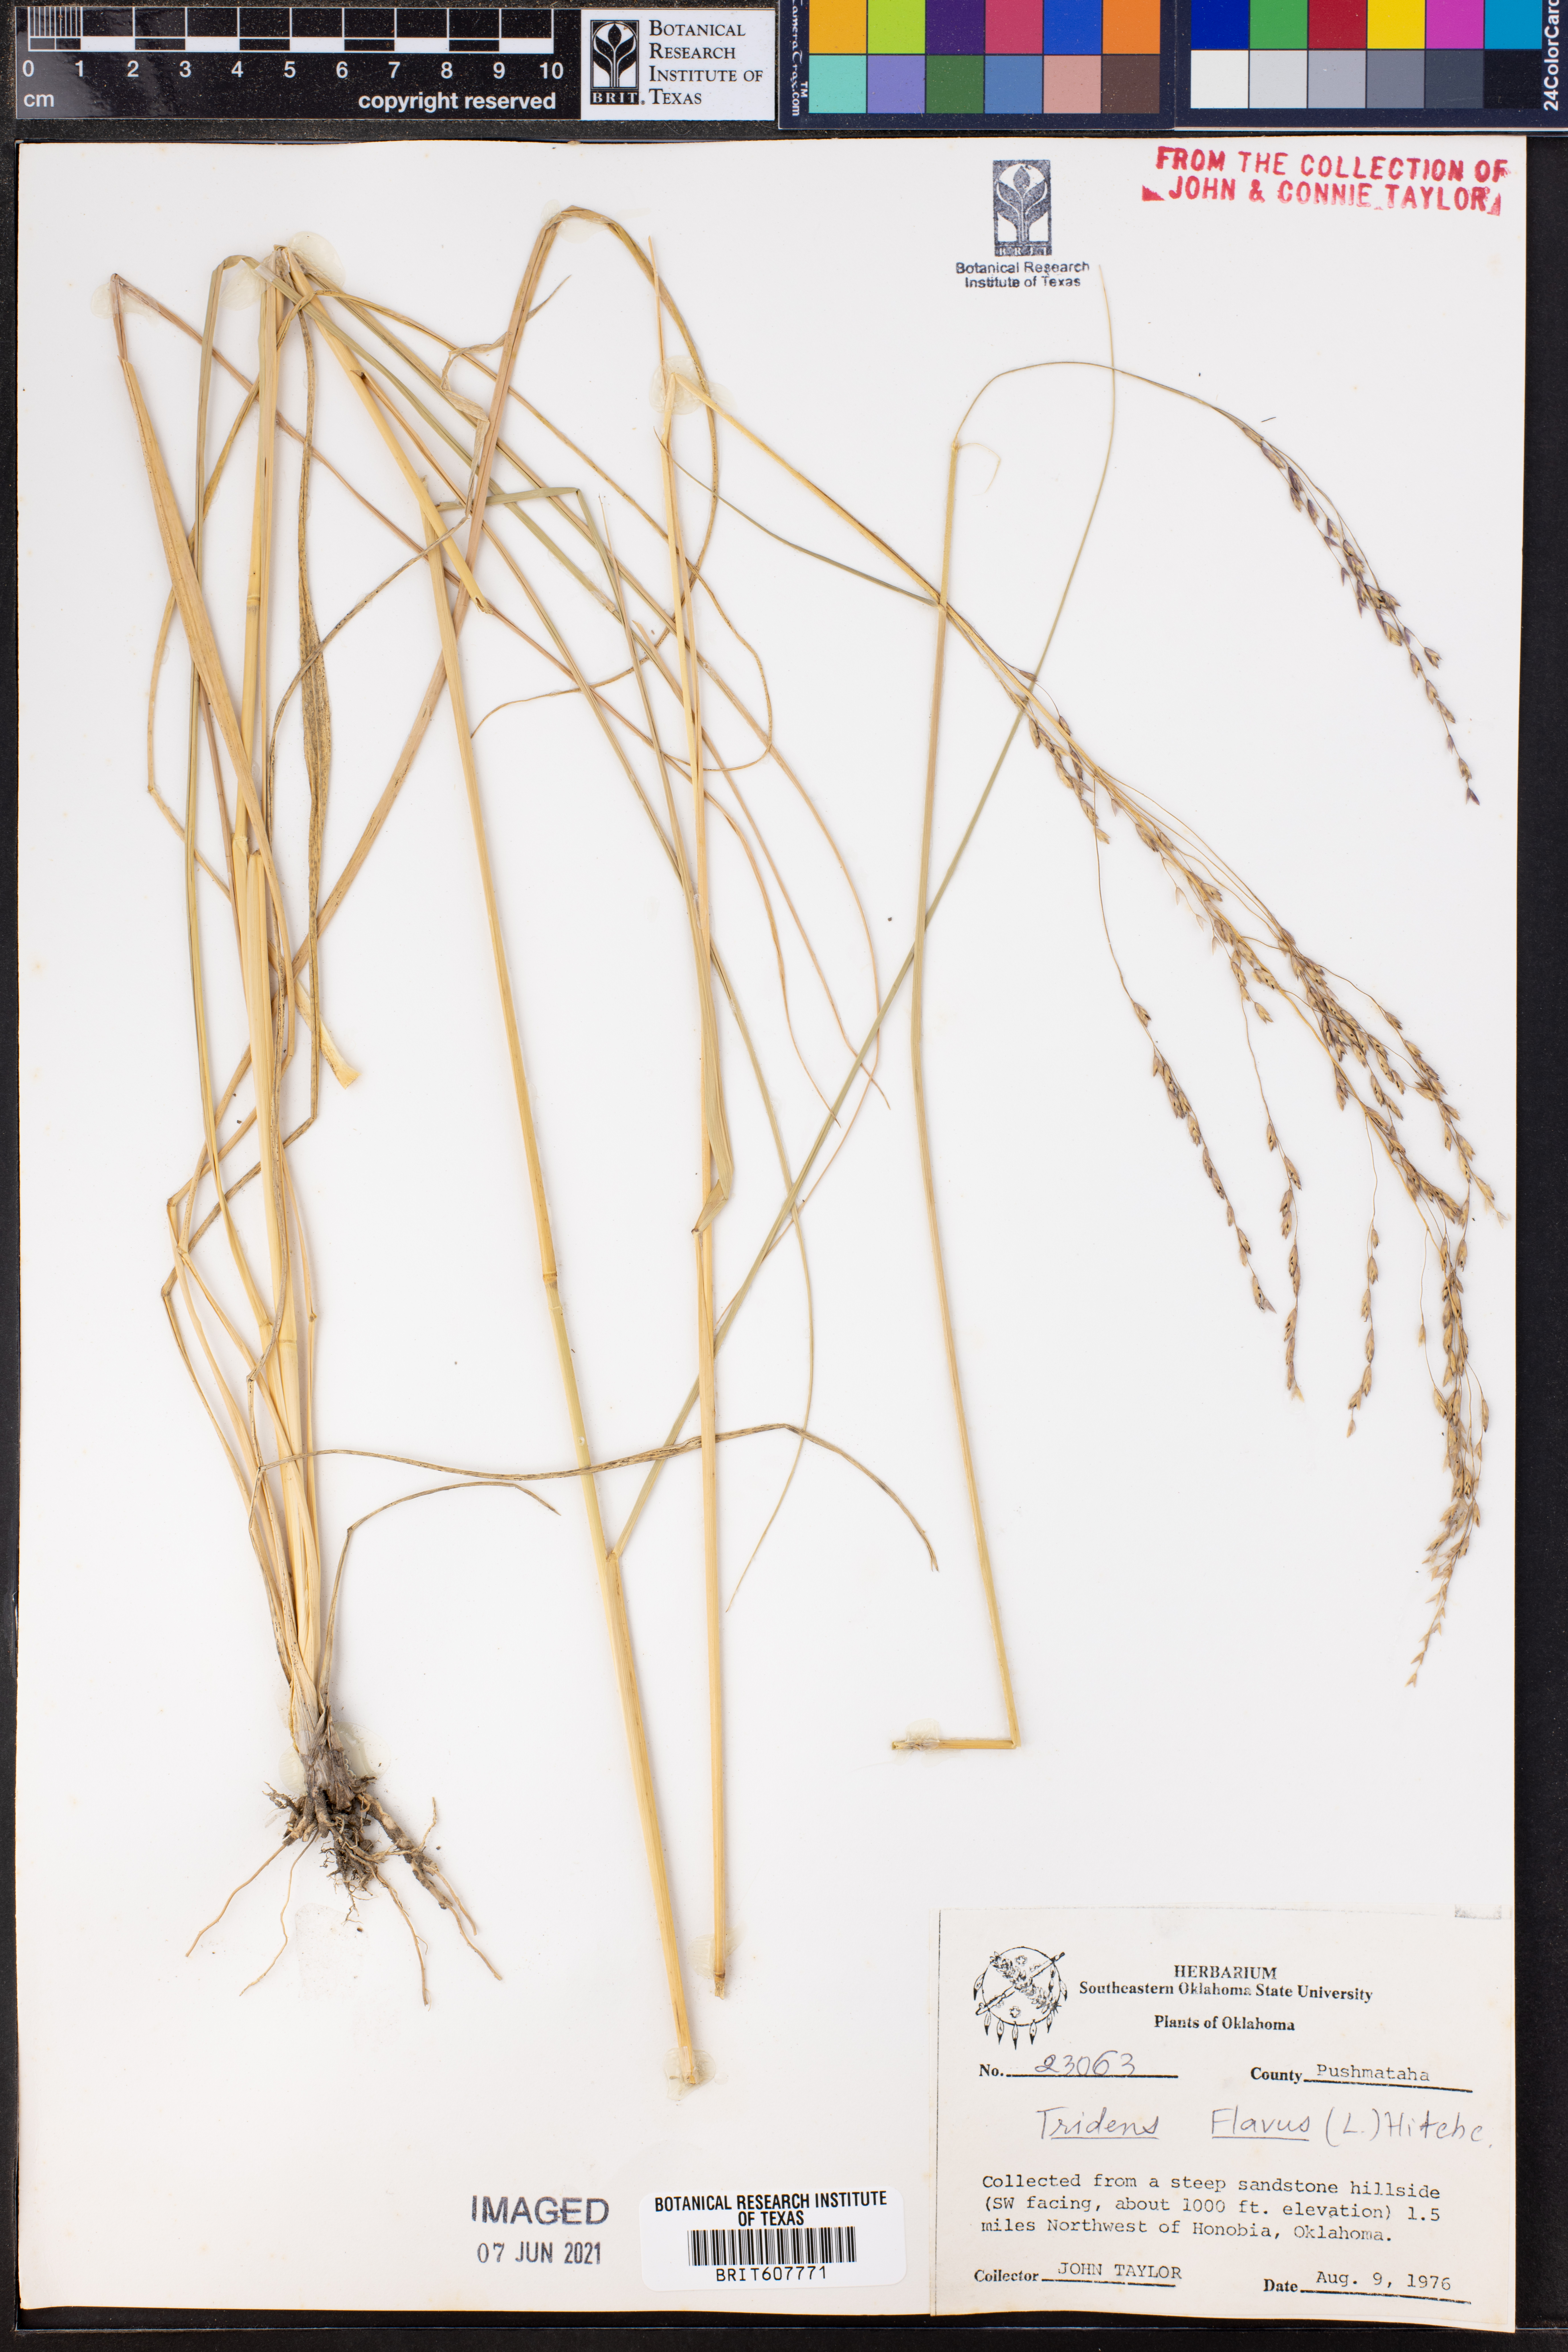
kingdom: Plantae
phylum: Tracheophyta
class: Liliopsida
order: Poales
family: Poaceae
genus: Tridens
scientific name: Tridens flavus
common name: Purpletop
